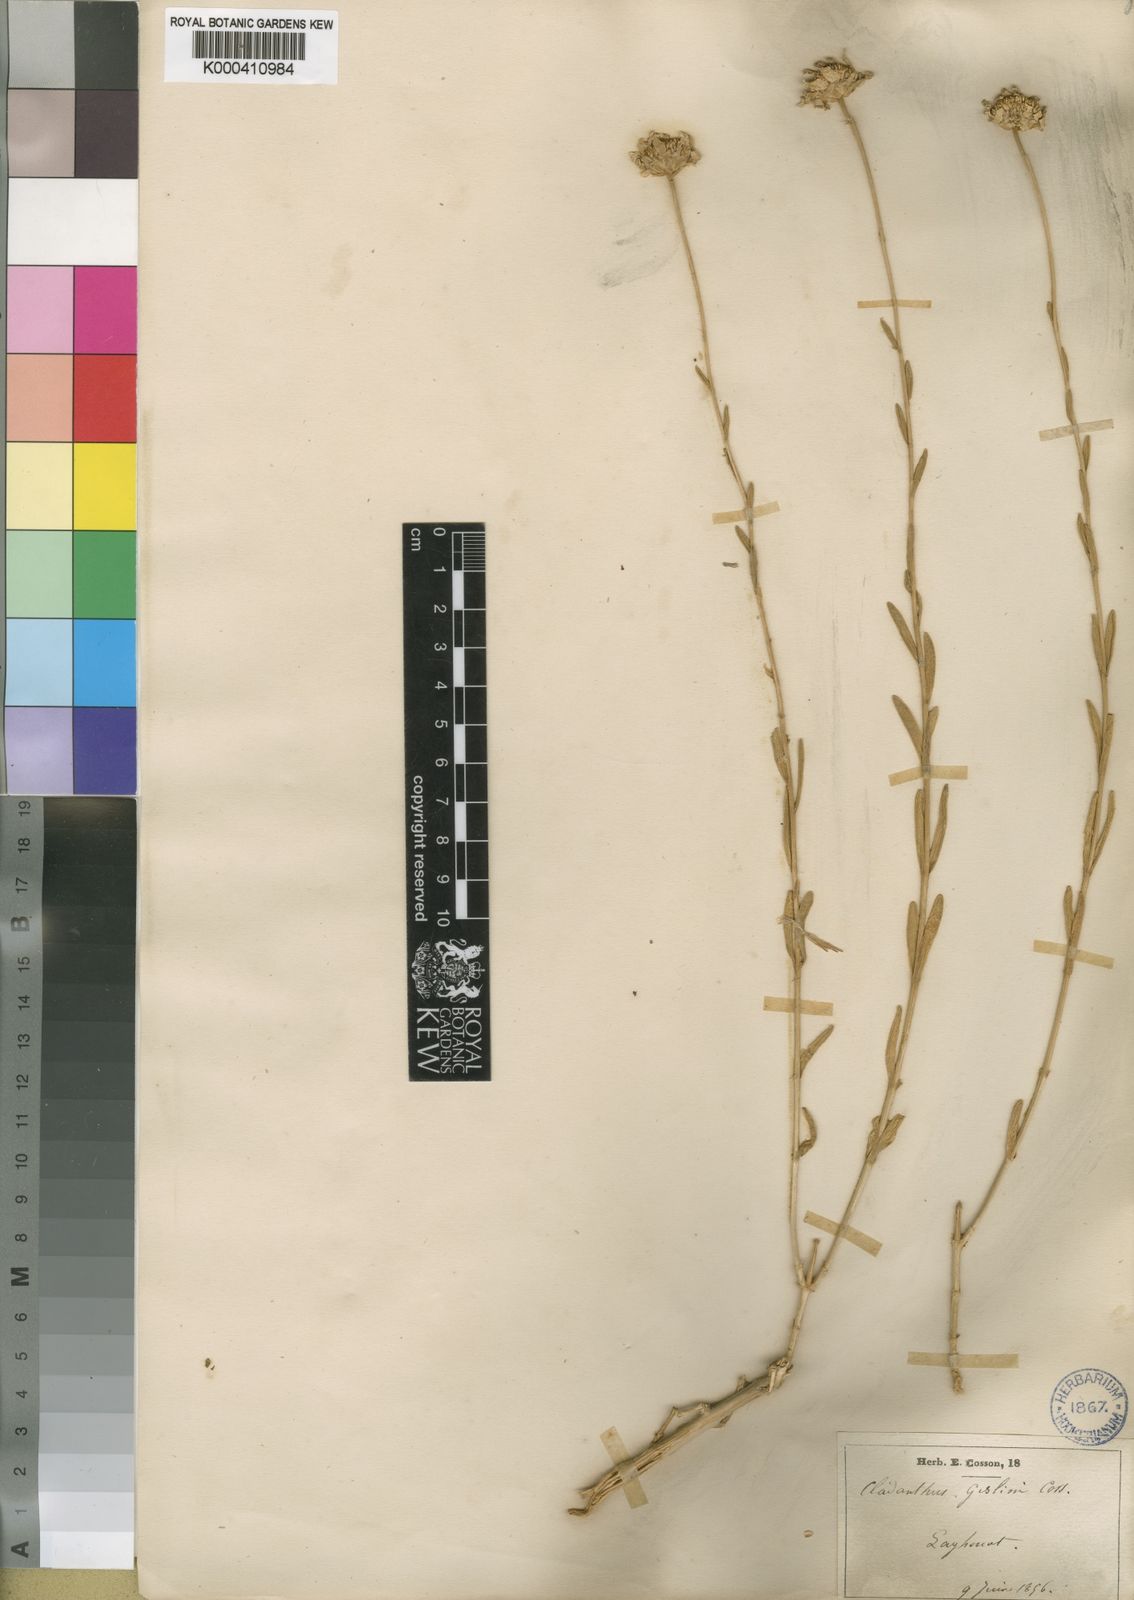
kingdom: Plantae
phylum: Tracheophyta
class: Magnoliopsida
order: Asterales
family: Asteraceae
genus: Mecomischus
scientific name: Mecomischus
